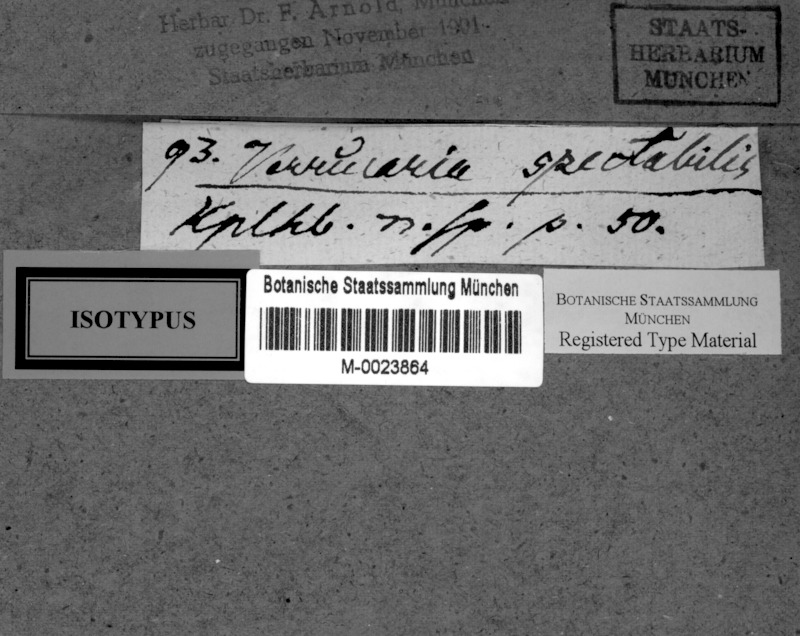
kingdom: Fungi
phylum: Ascomycota
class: Lecanoromycetes
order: Pertusariales
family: Pertusariaceae
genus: Porina
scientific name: Porina
